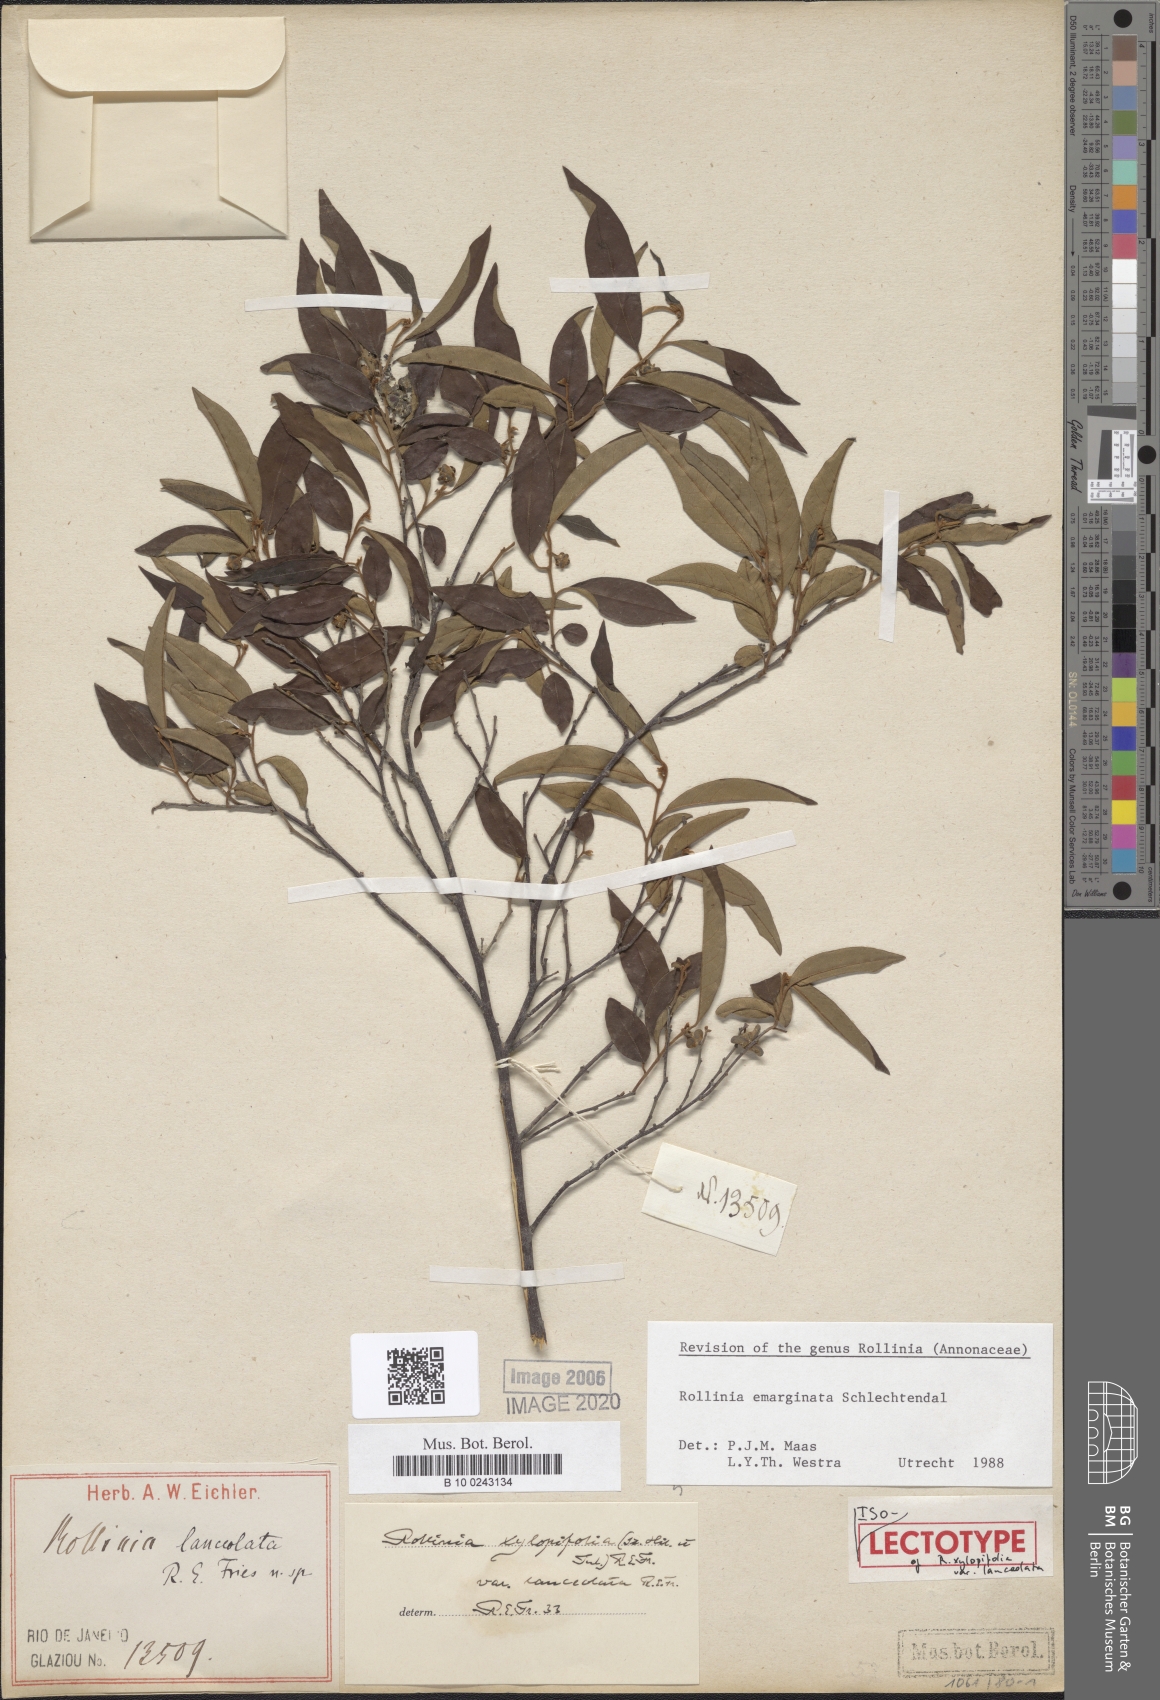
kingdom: Plantae
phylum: Tracheophyta
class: Magnoliopsida
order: Magnoliales
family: Annonaceae
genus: Annona
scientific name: Annona emarginata
